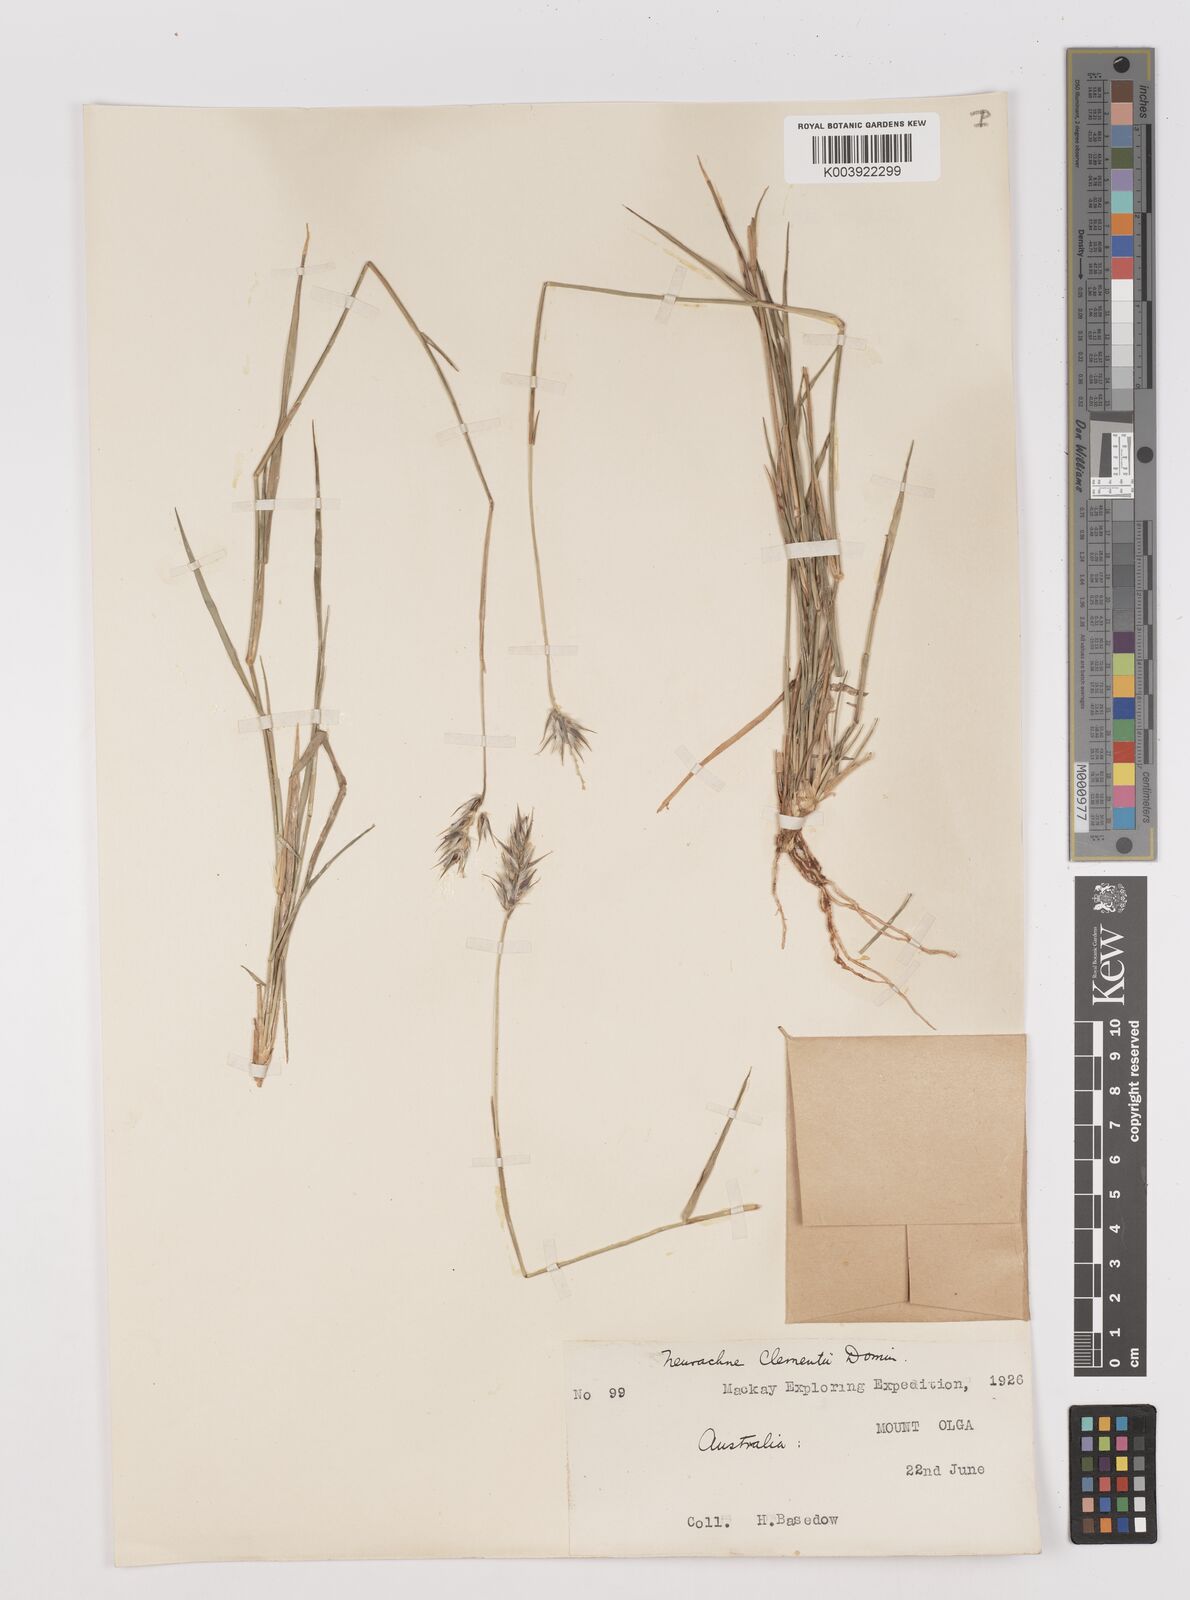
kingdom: Plantae
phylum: Tracheophyta
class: Liliopsida
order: Poales
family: Poaceae
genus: Neurachne
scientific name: Neurachne muelleri
